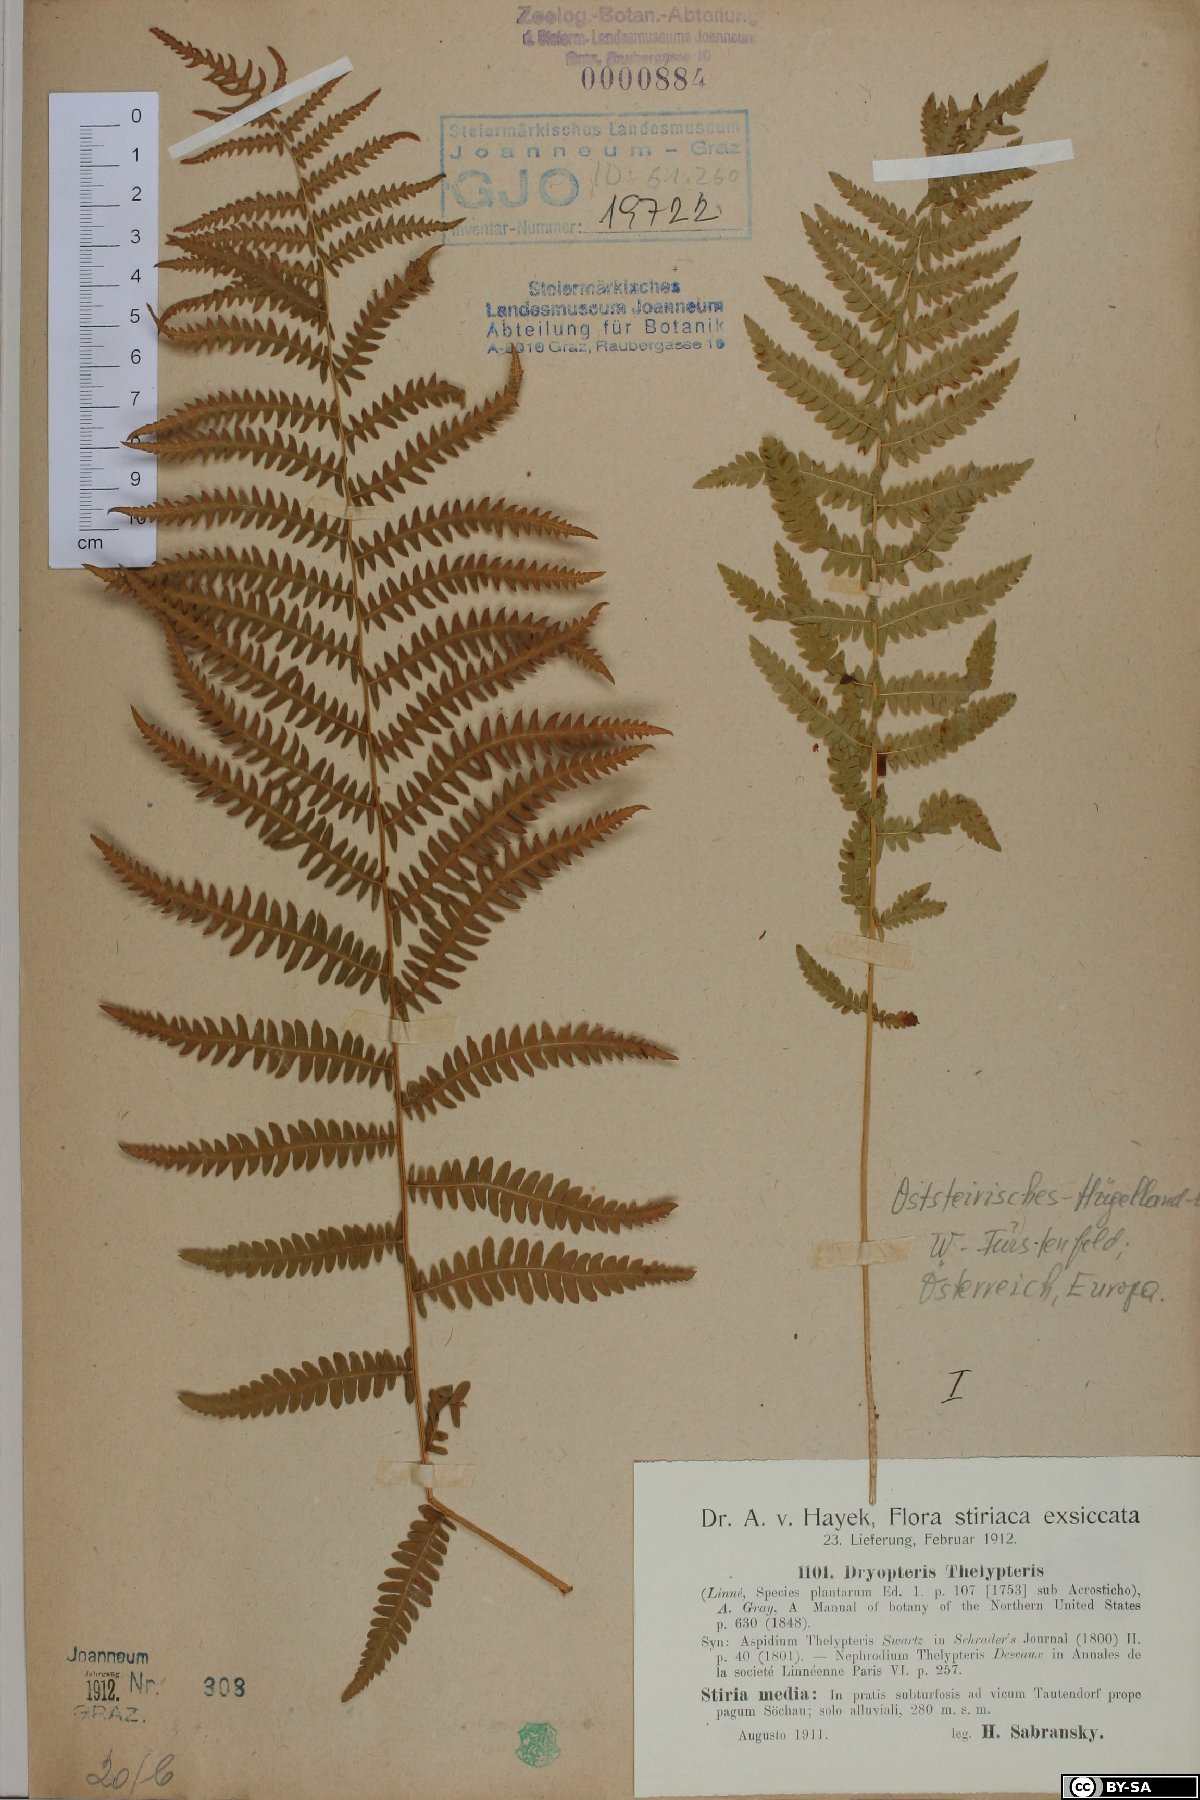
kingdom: Plantae
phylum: Tracheophyta
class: Polypodiopsida
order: Polypodiales
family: Thelypteridaceae
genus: Thelypteris
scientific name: Thelypteris palustris
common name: Marsh fern
